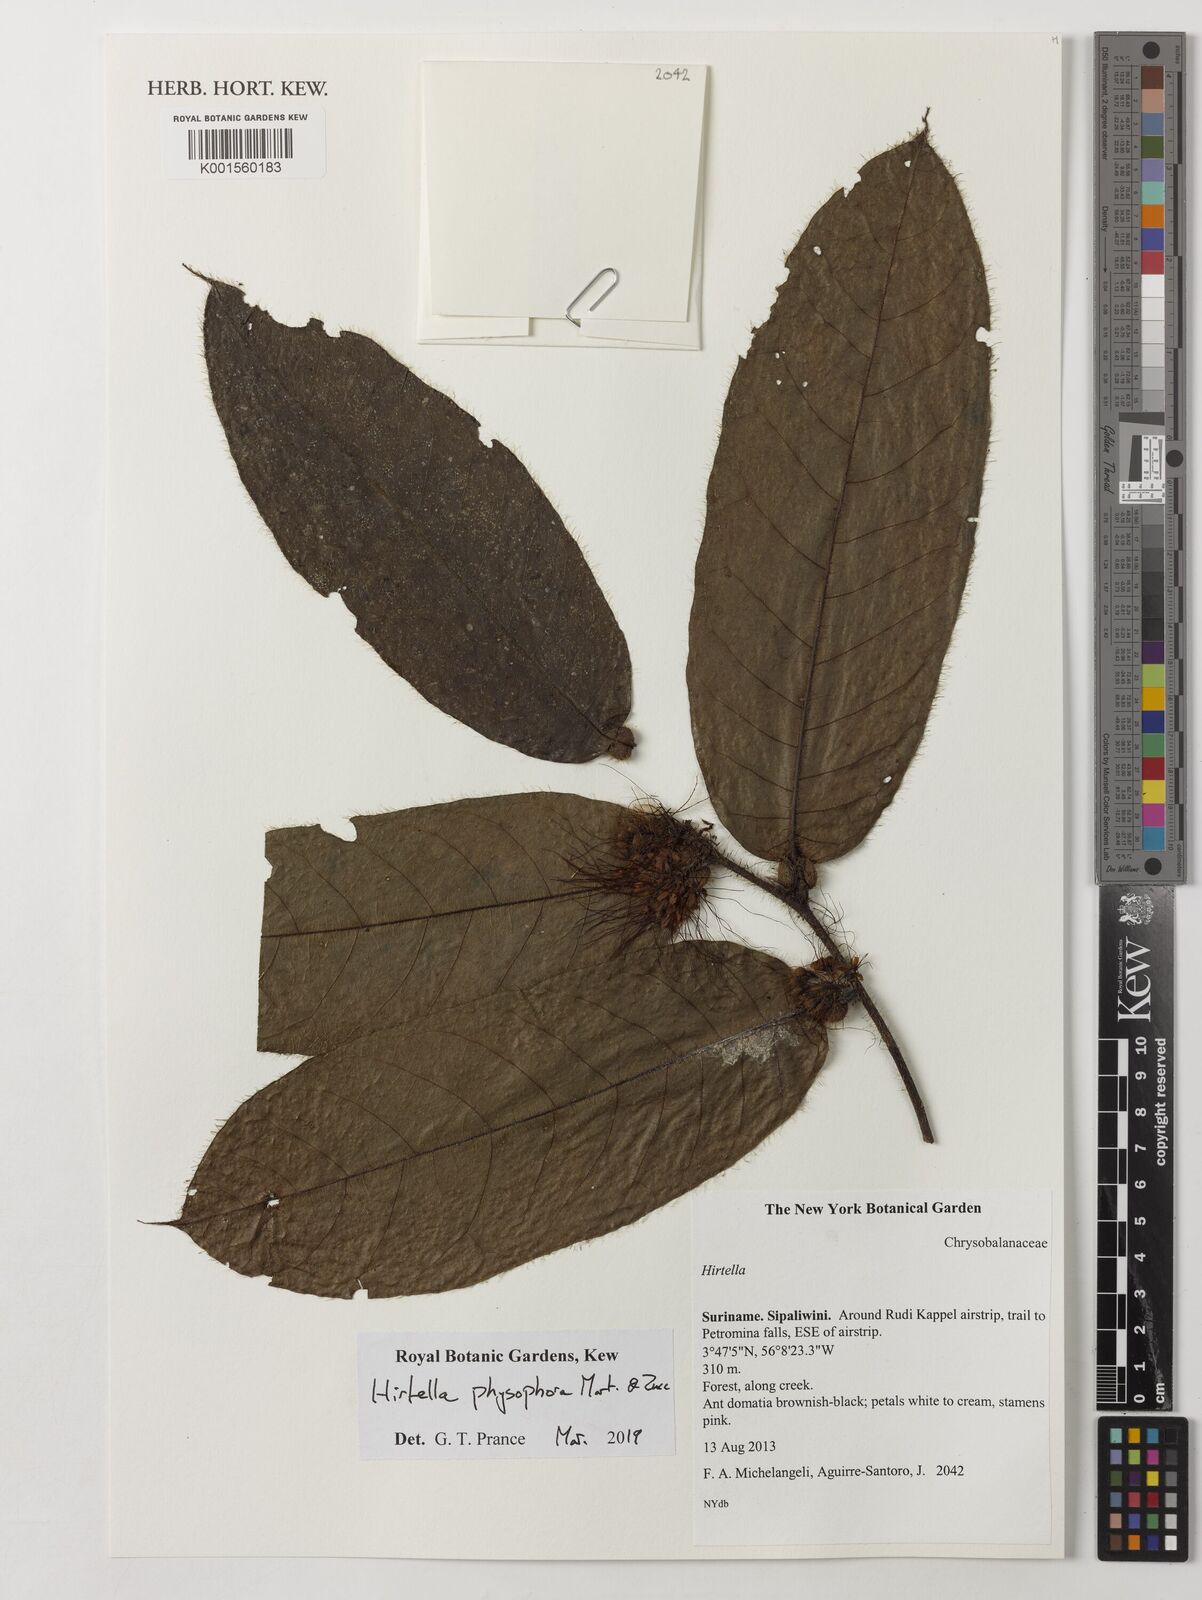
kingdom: Plantae
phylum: Tracheophyta
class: Magnoliopsida
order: Malpighiales
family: Chrysobalanaceae
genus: Hirtella
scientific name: Hirtella physophora
